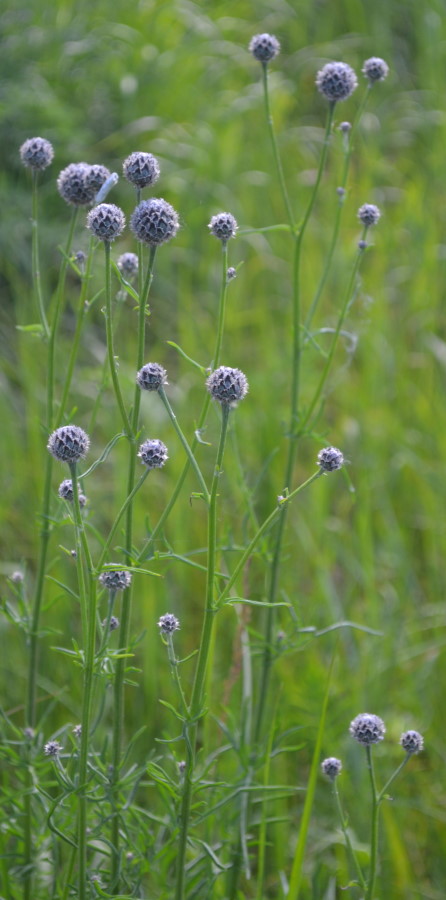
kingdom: Plantae
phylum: Tracheophyta
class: Magnoliopsida
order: Asterales
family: Asteraceae
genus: Centaurea
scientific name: Centaurea scabiosa
